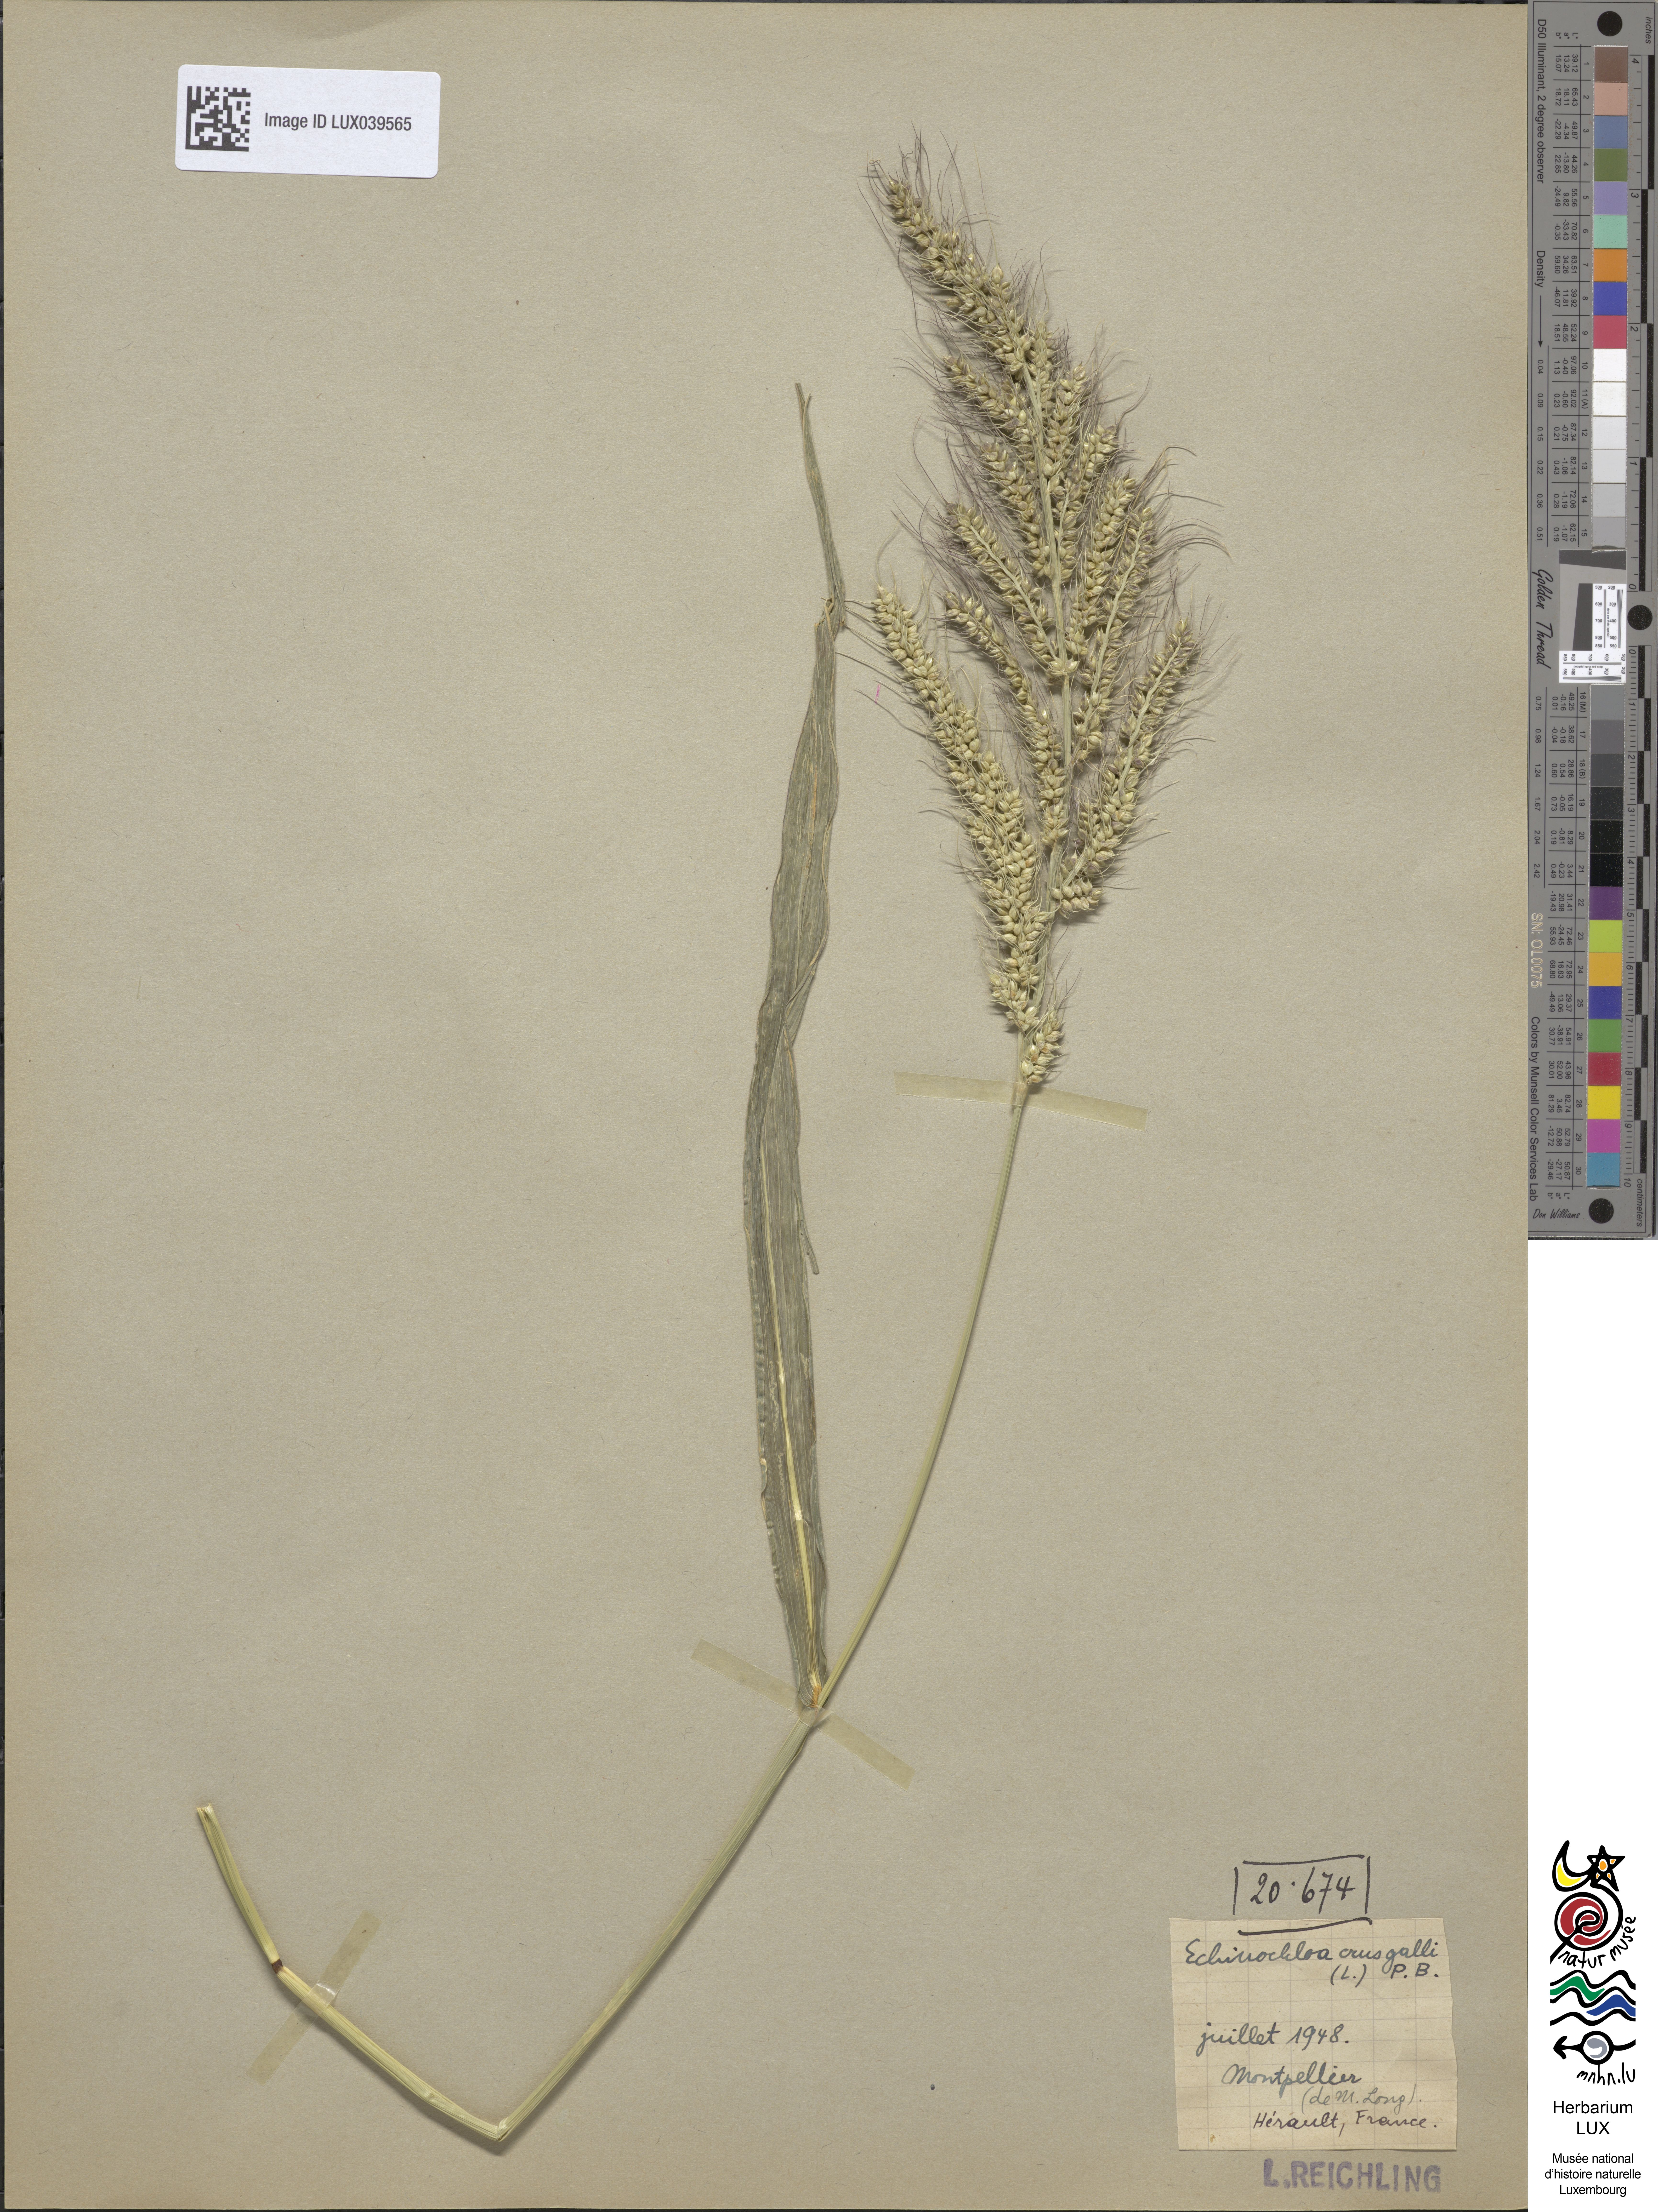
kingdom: Plantae
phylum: Tracheophyta
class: Liliopsida
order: Poales
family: Poaceae
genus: Echinochloa
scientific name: Echinochloa crus-galli
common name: Cockspur
